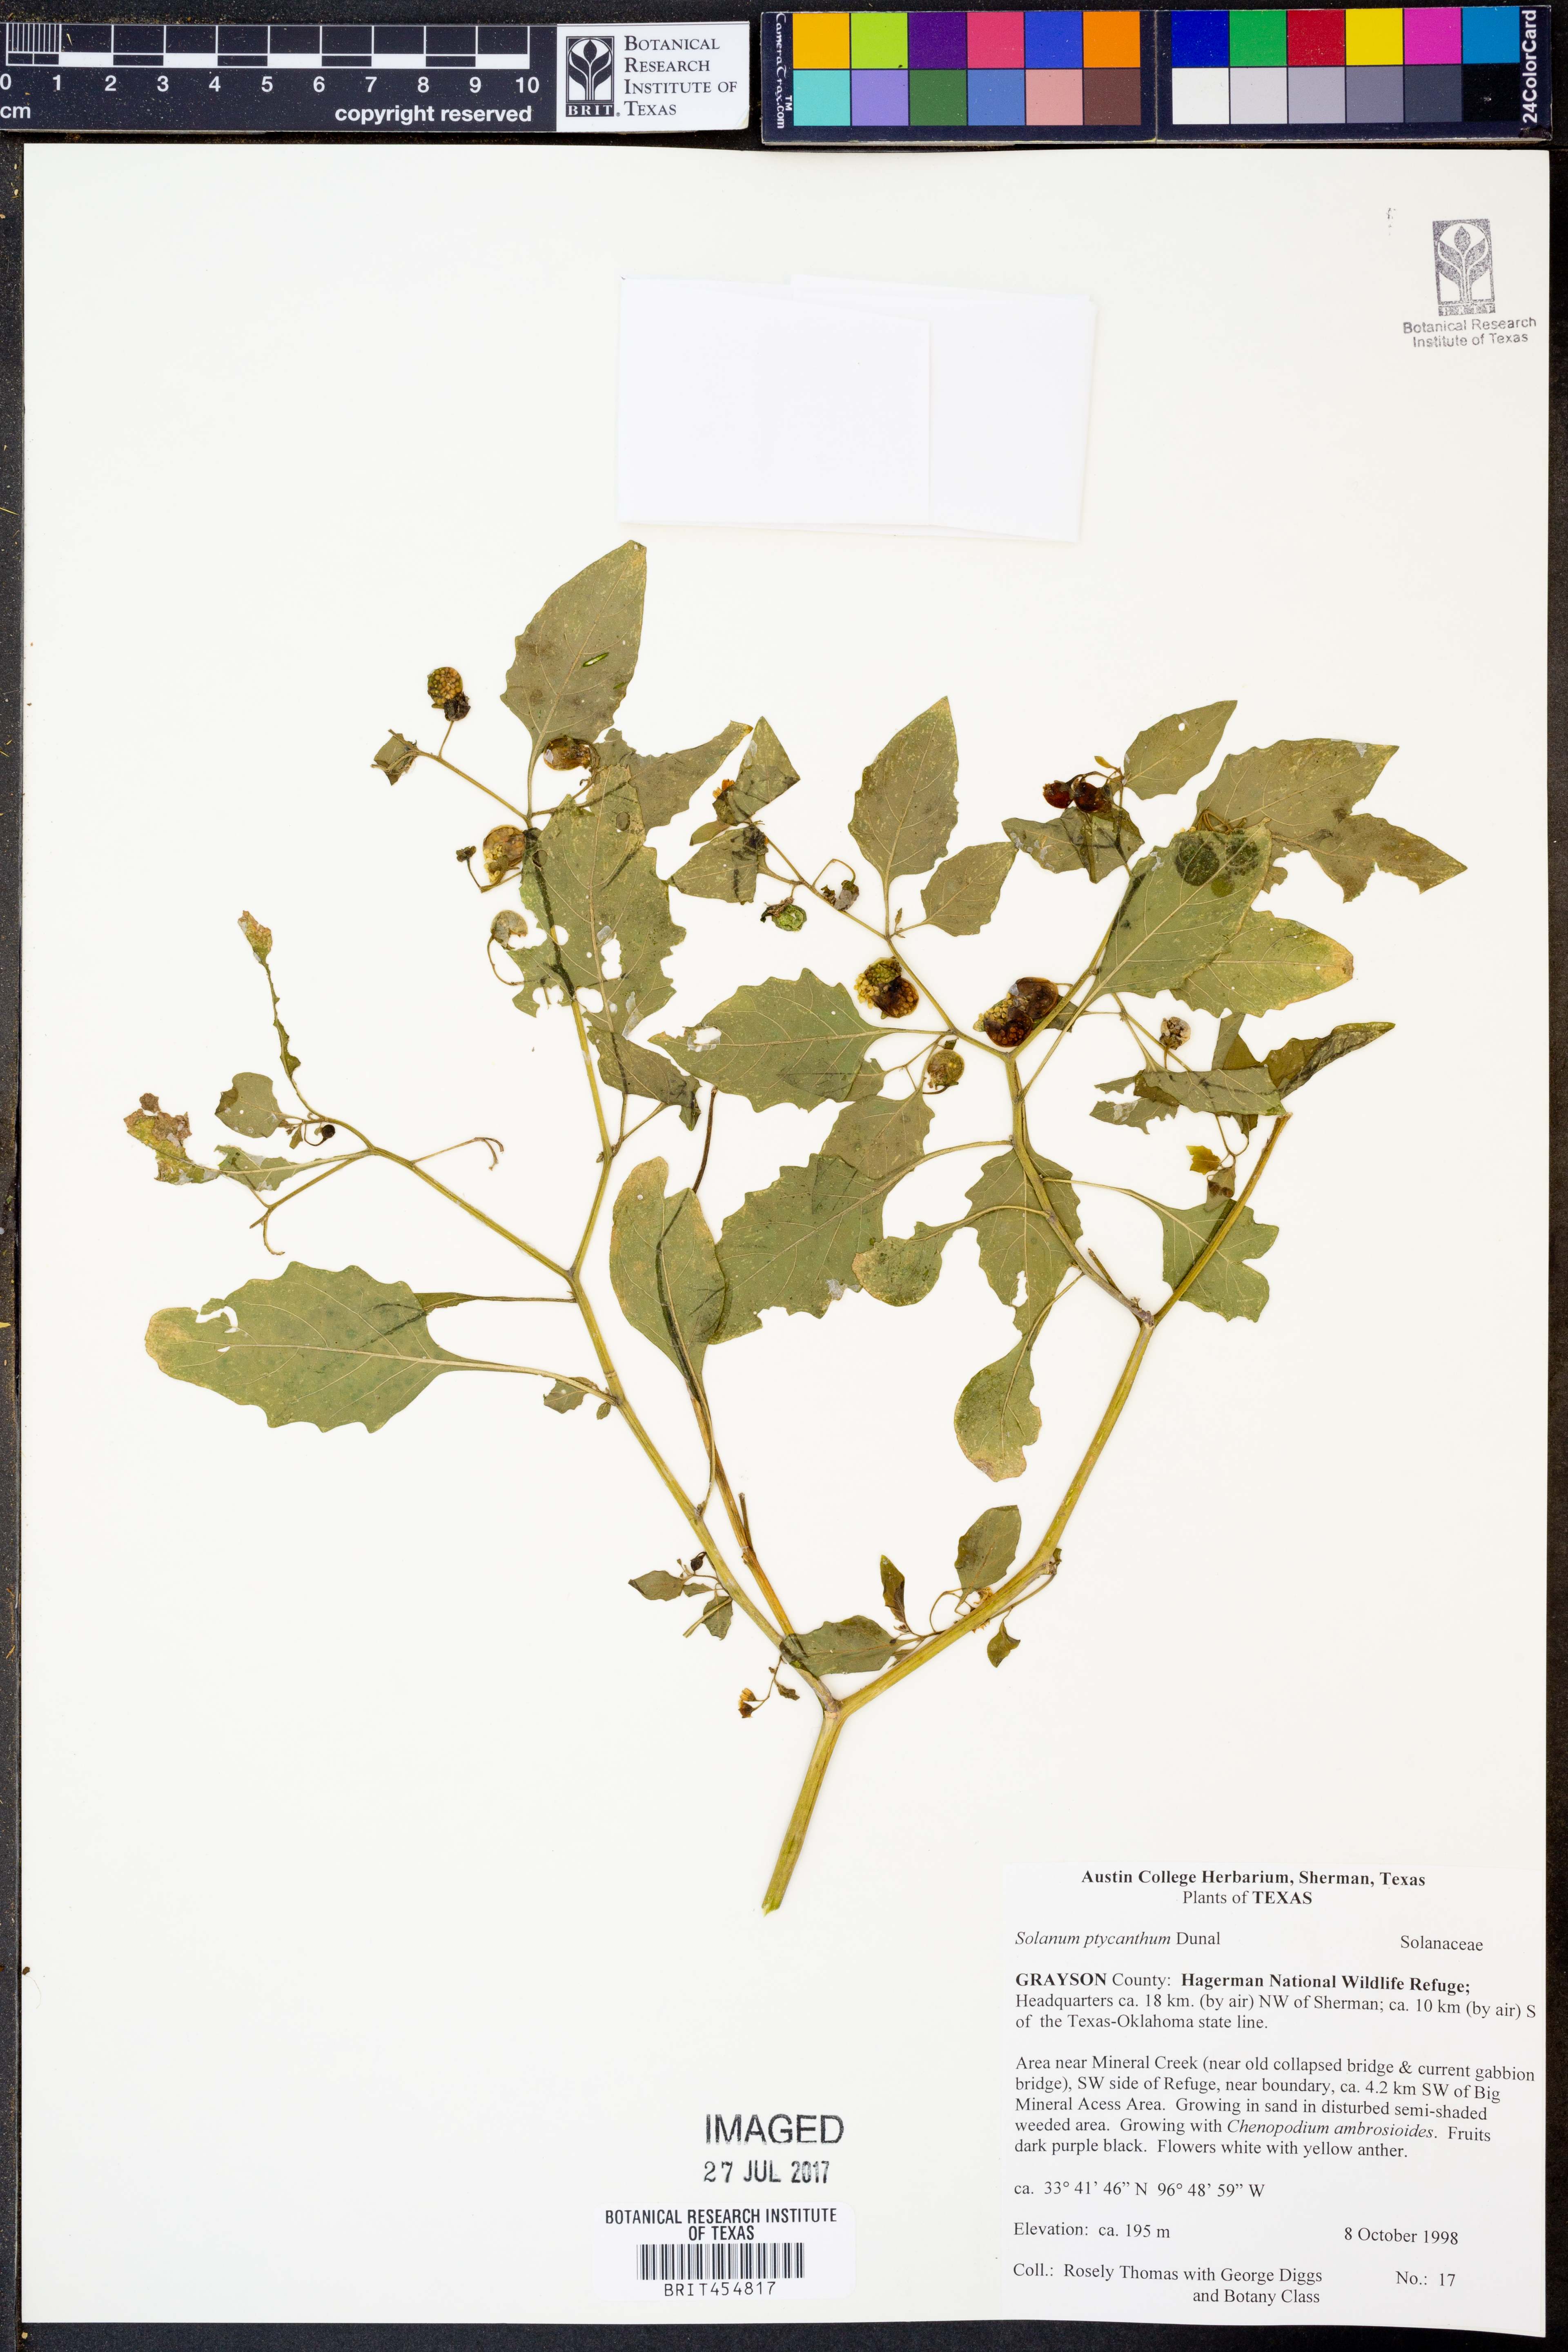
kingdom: Plantae
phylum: Tracheophyta
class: Magnoliopsida
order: Solanales
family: Solanaceae
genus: Solanum
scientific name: Solanum americanum
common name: American black nightshade
